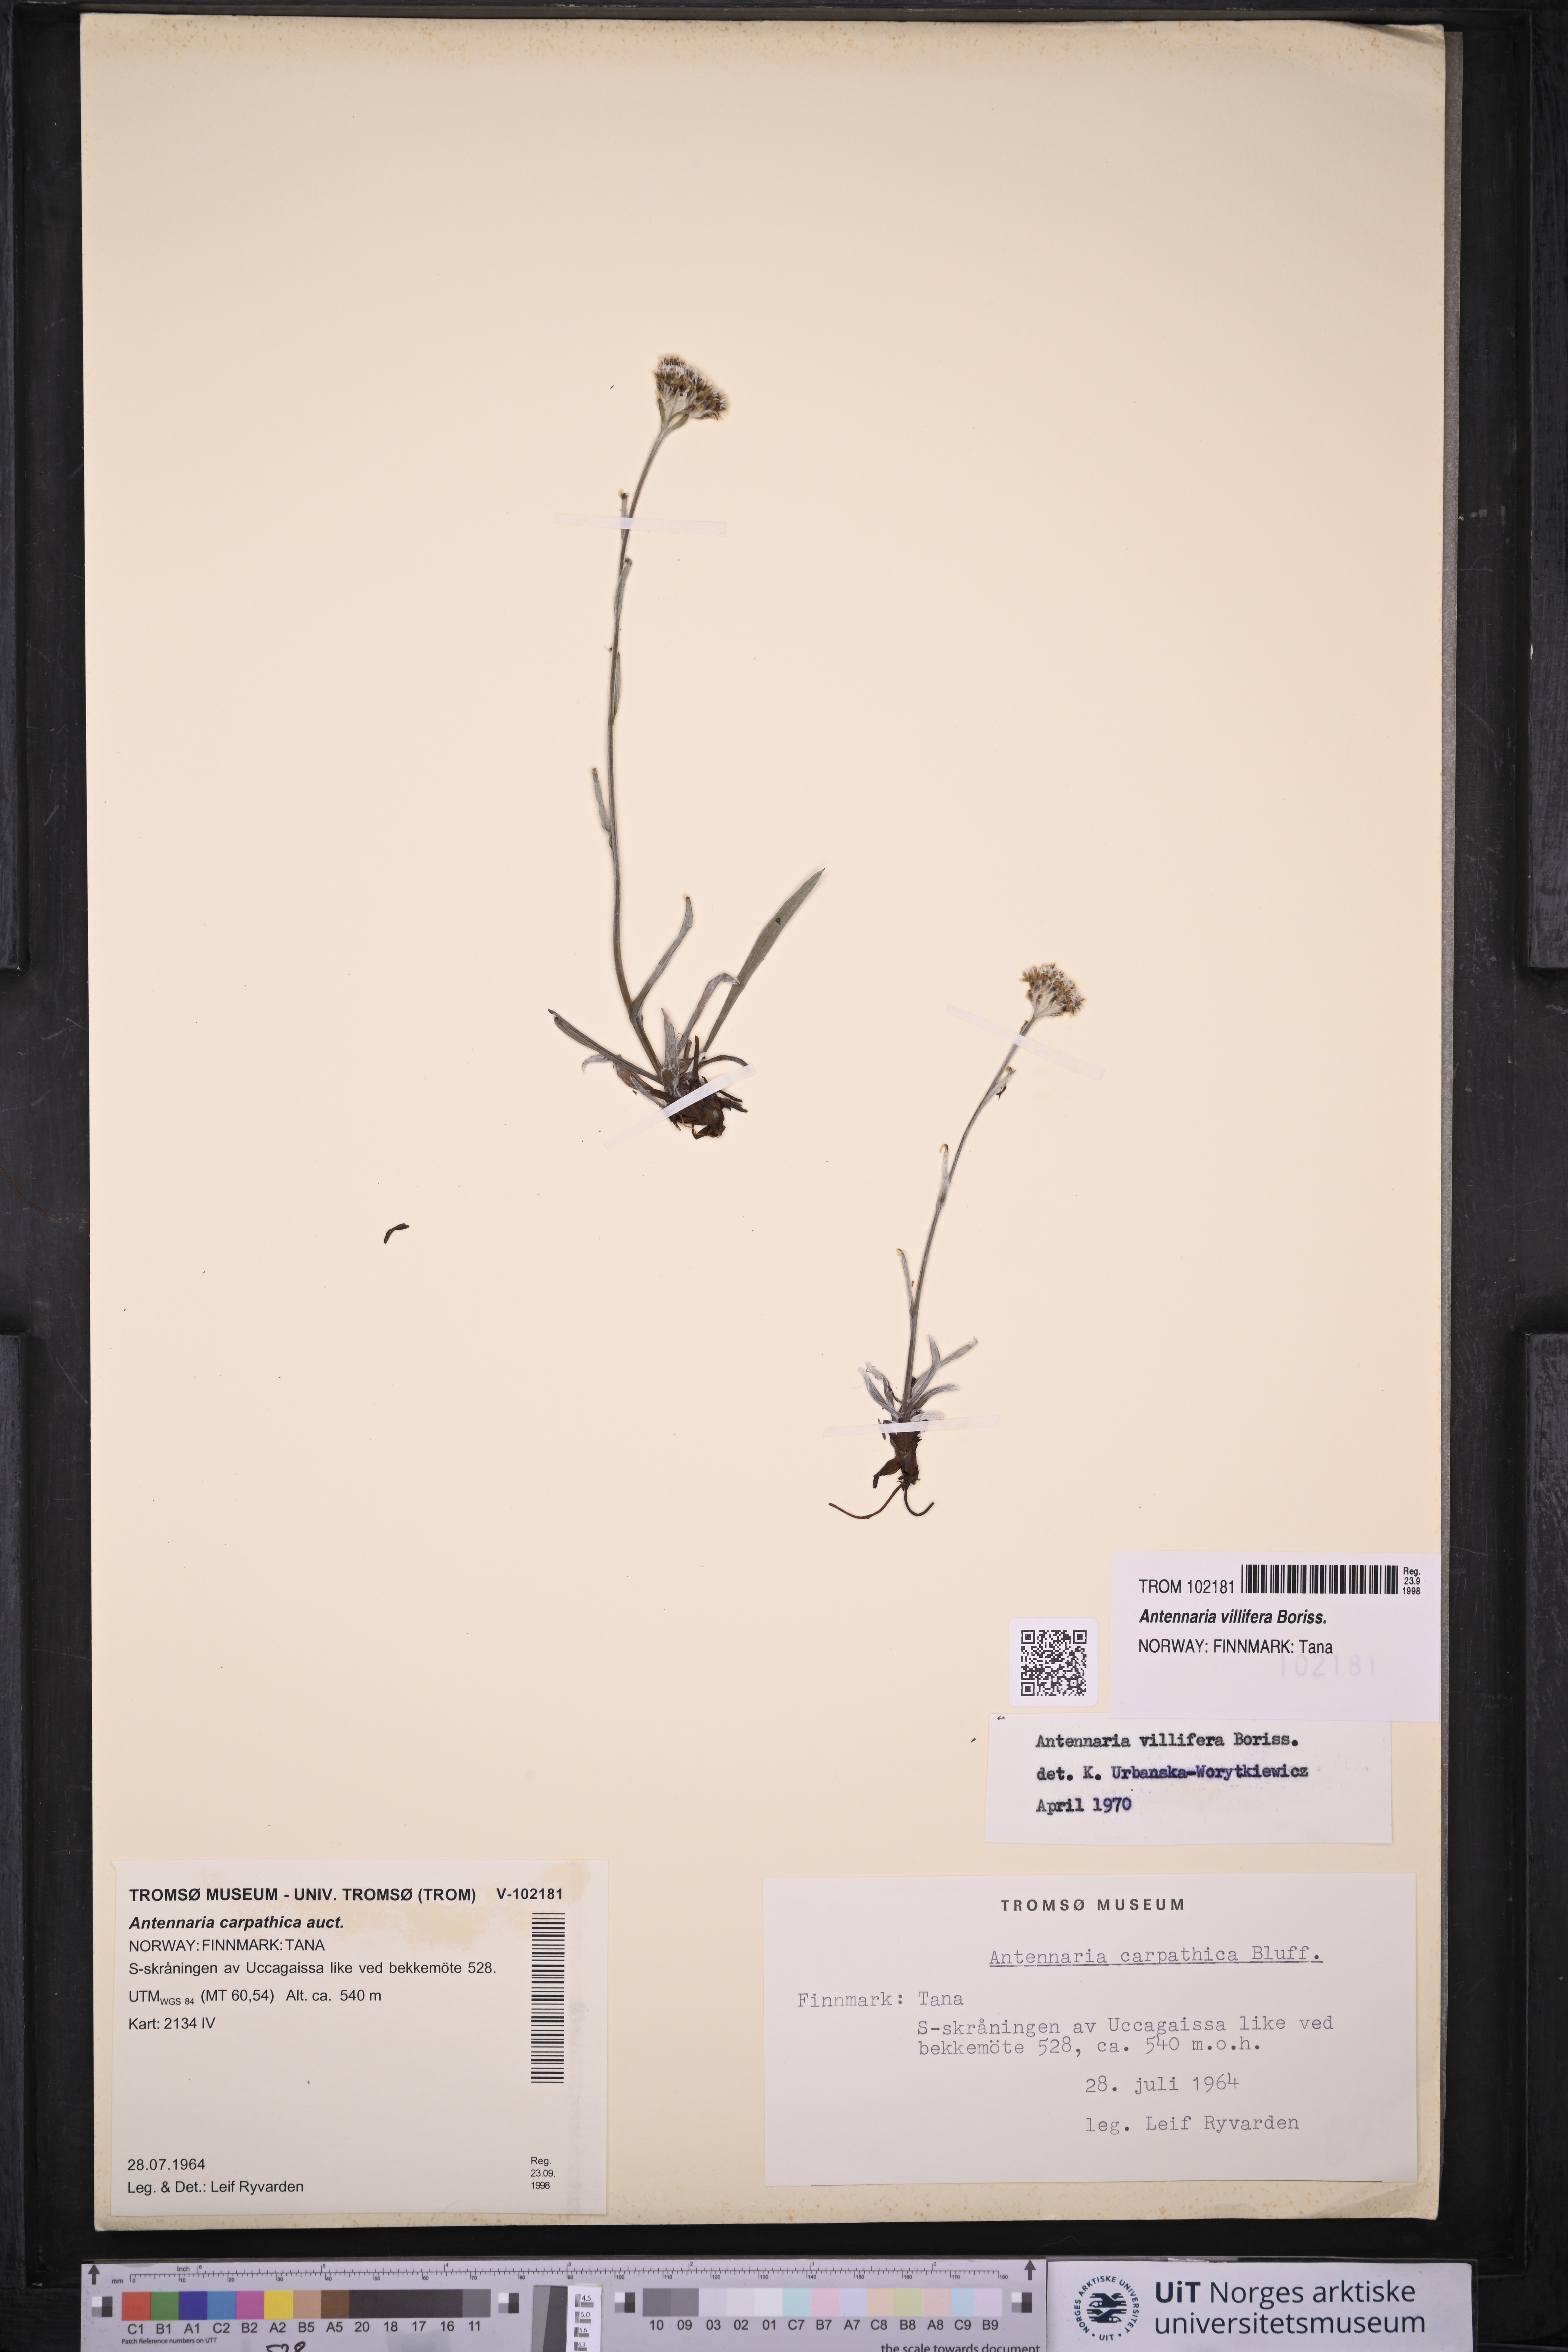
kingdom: Plantae
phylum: Tracheophyta
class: Magnoliopsida
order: Asterales
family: Asteraceae
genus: Antennaria
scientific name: Antennaria lanata
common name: Woolly pussytoes
